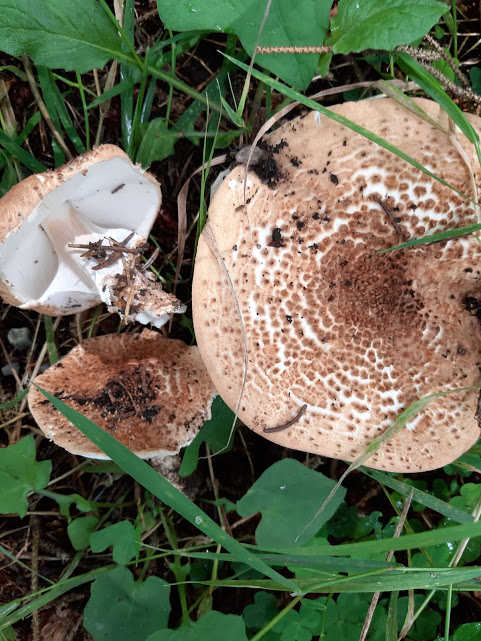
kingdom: Fungi
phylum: Basidiomycota
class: Agaricomycetes
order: Agaricales
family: Agaricaceae
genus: Echinoderma
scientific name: Echinoderma asperum
